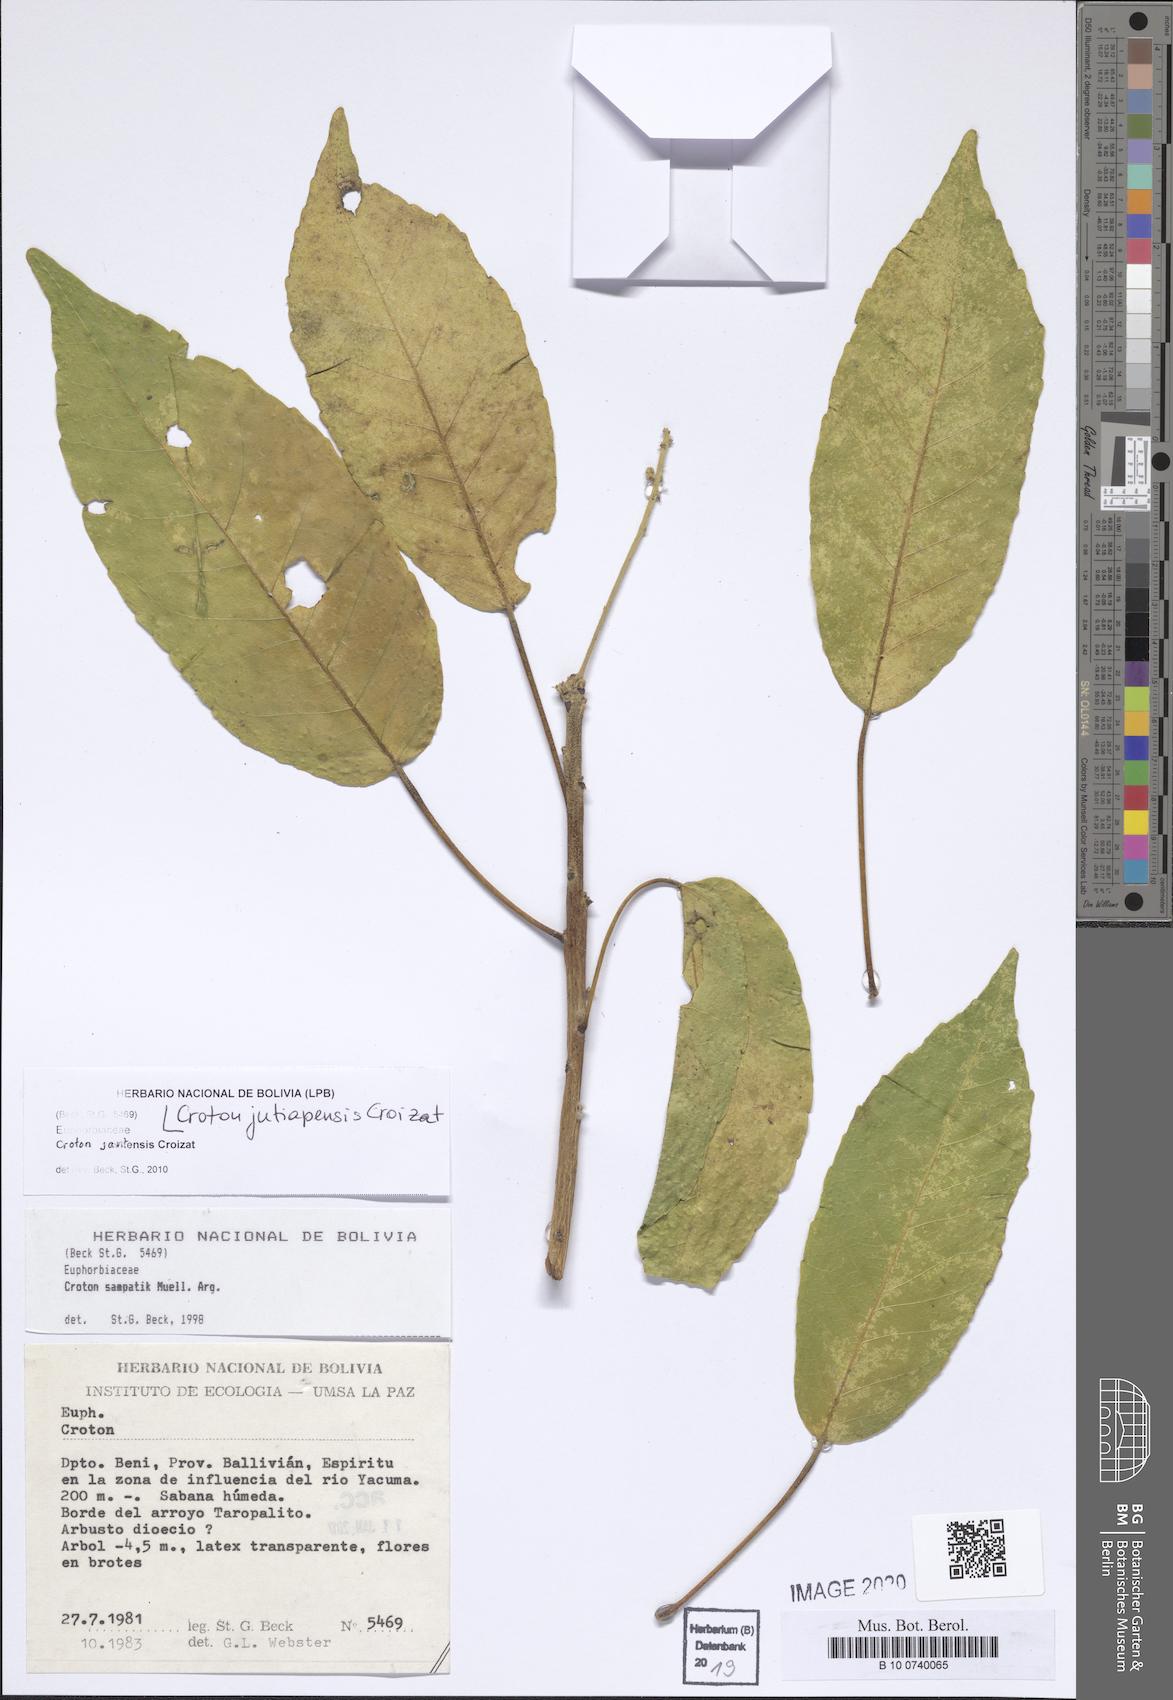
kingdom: Plantae
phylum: Tracheophyta
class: Magnoliopsida
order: Malpighiales
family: Euphorbiaceae
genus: Croton
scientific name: Croton jutiapensis
